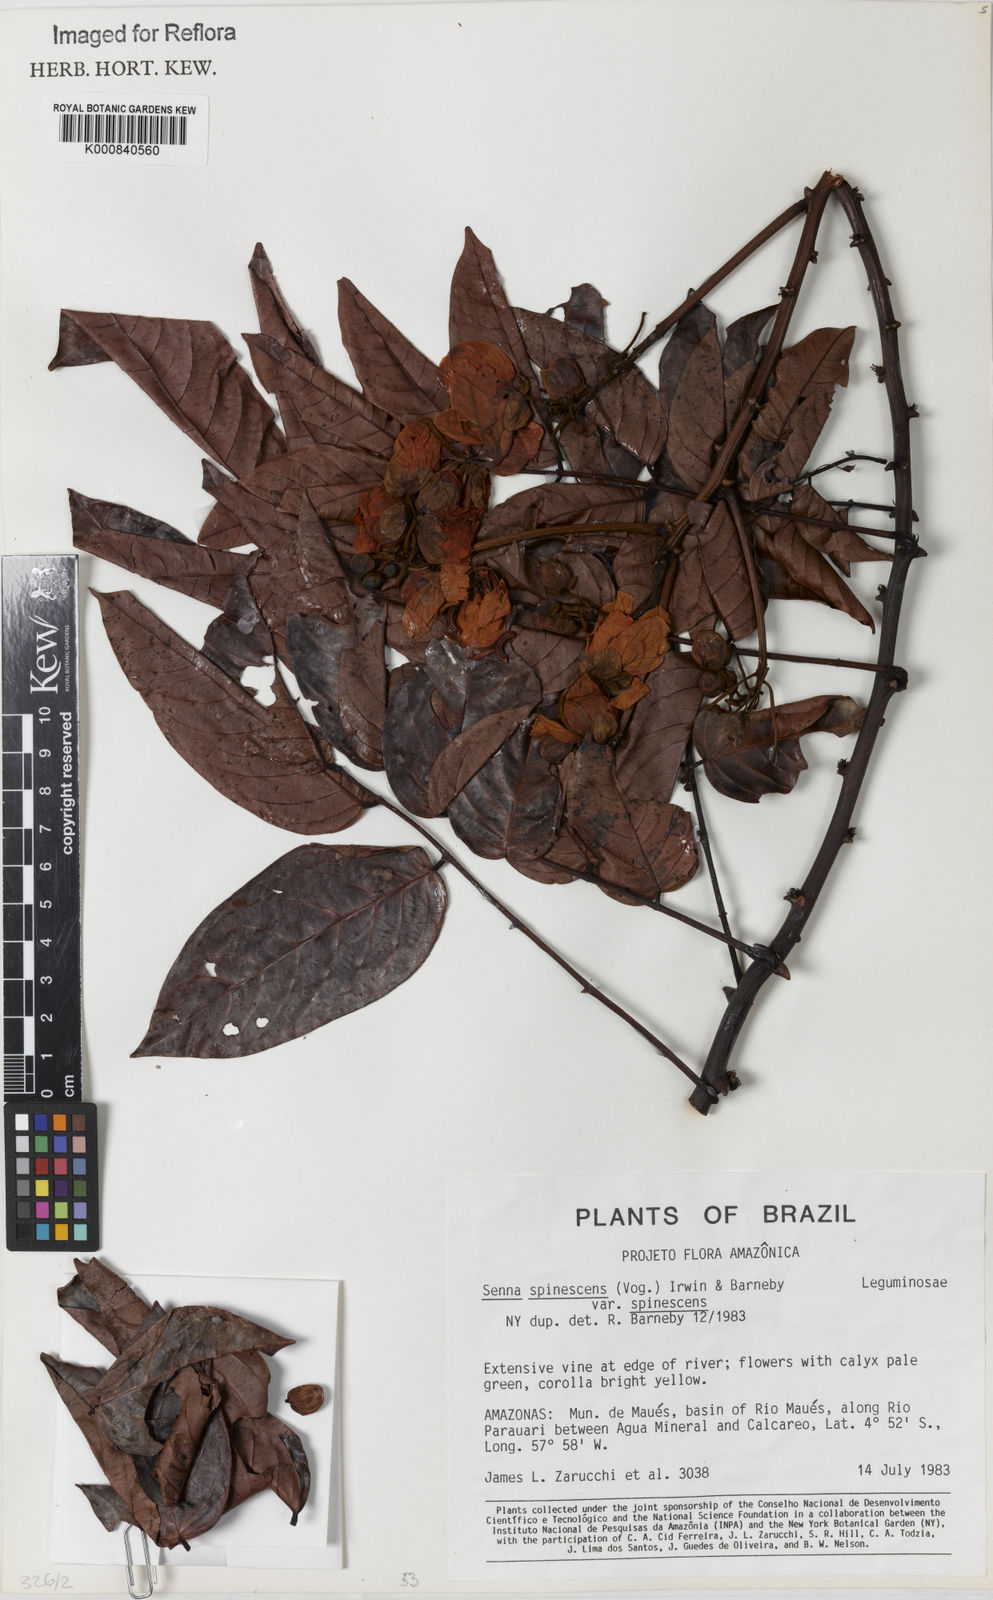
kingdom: Plantae
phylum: Tracheophyta
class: Magnoliopsida
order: Fabales
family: Fabaceae
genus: Senna
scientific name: Senna spinescens
